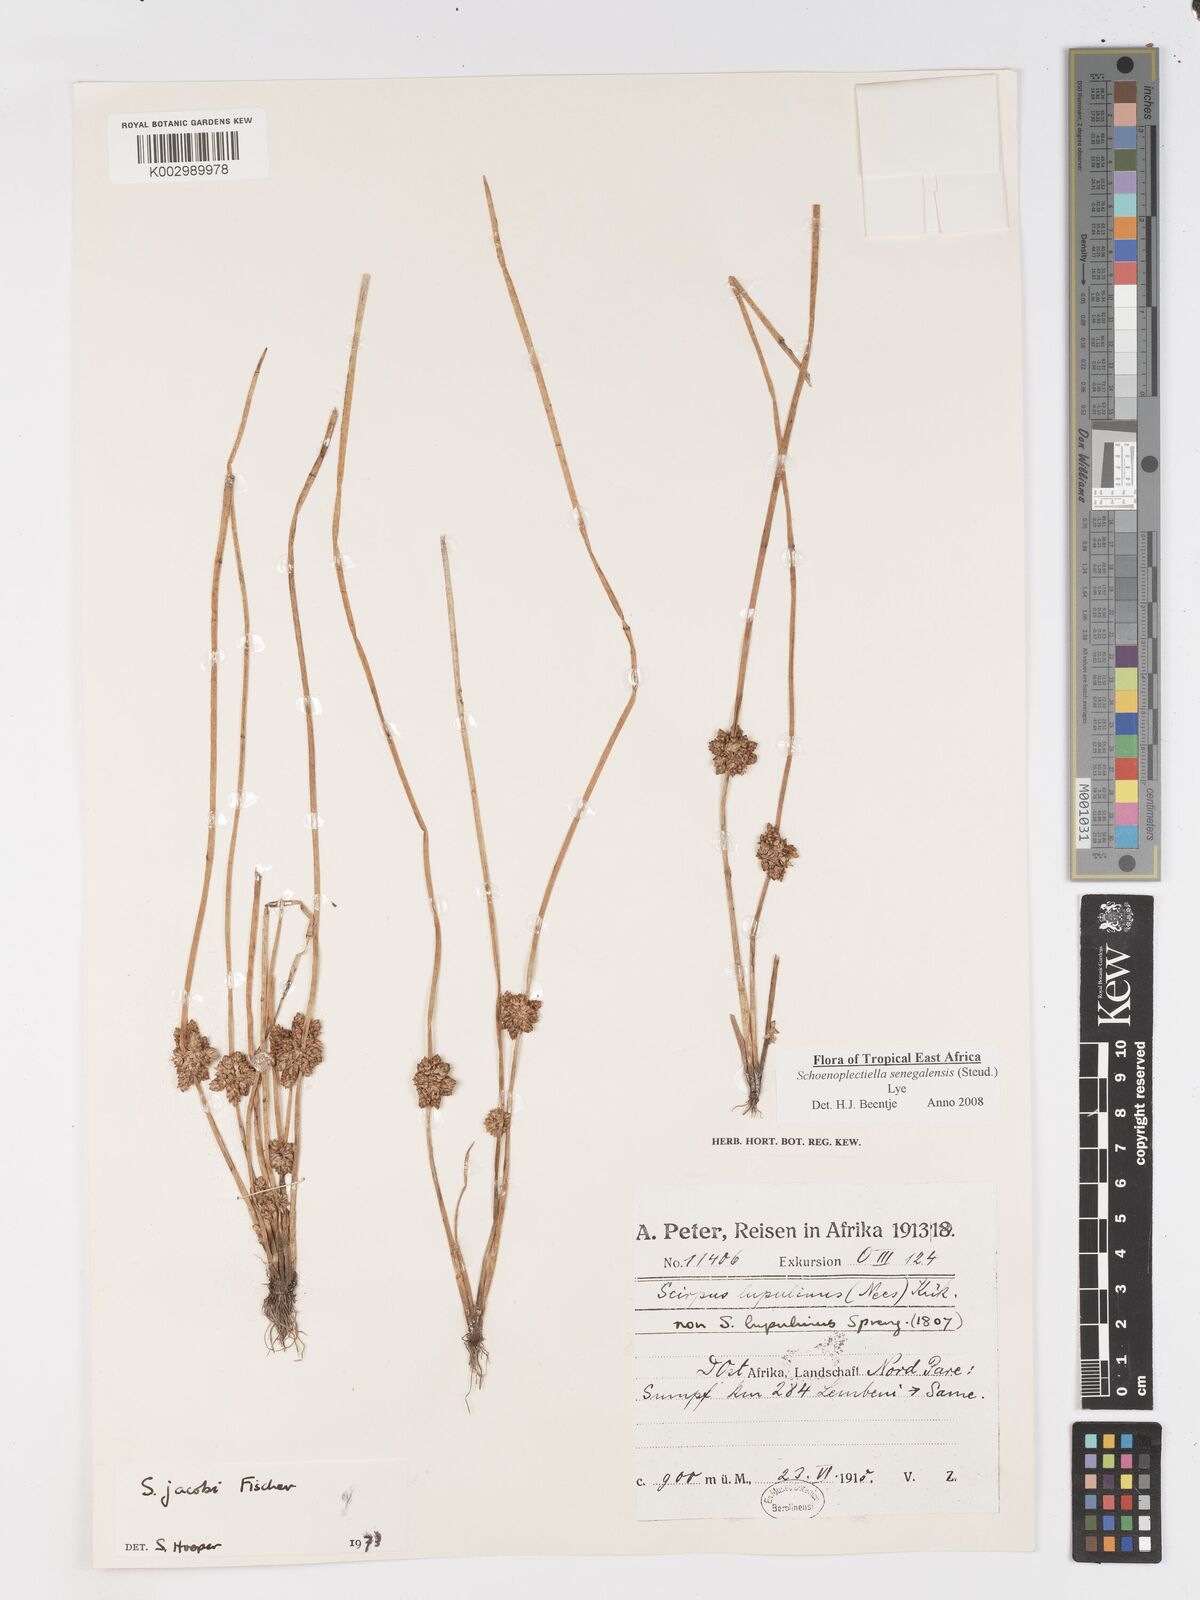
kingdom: Plantae
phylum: Tracheophyta
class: Liliopsida
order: Poales
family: Cyperaceae
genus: Schoenoplectiella
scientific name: Schoenoplectiella senegalensis
